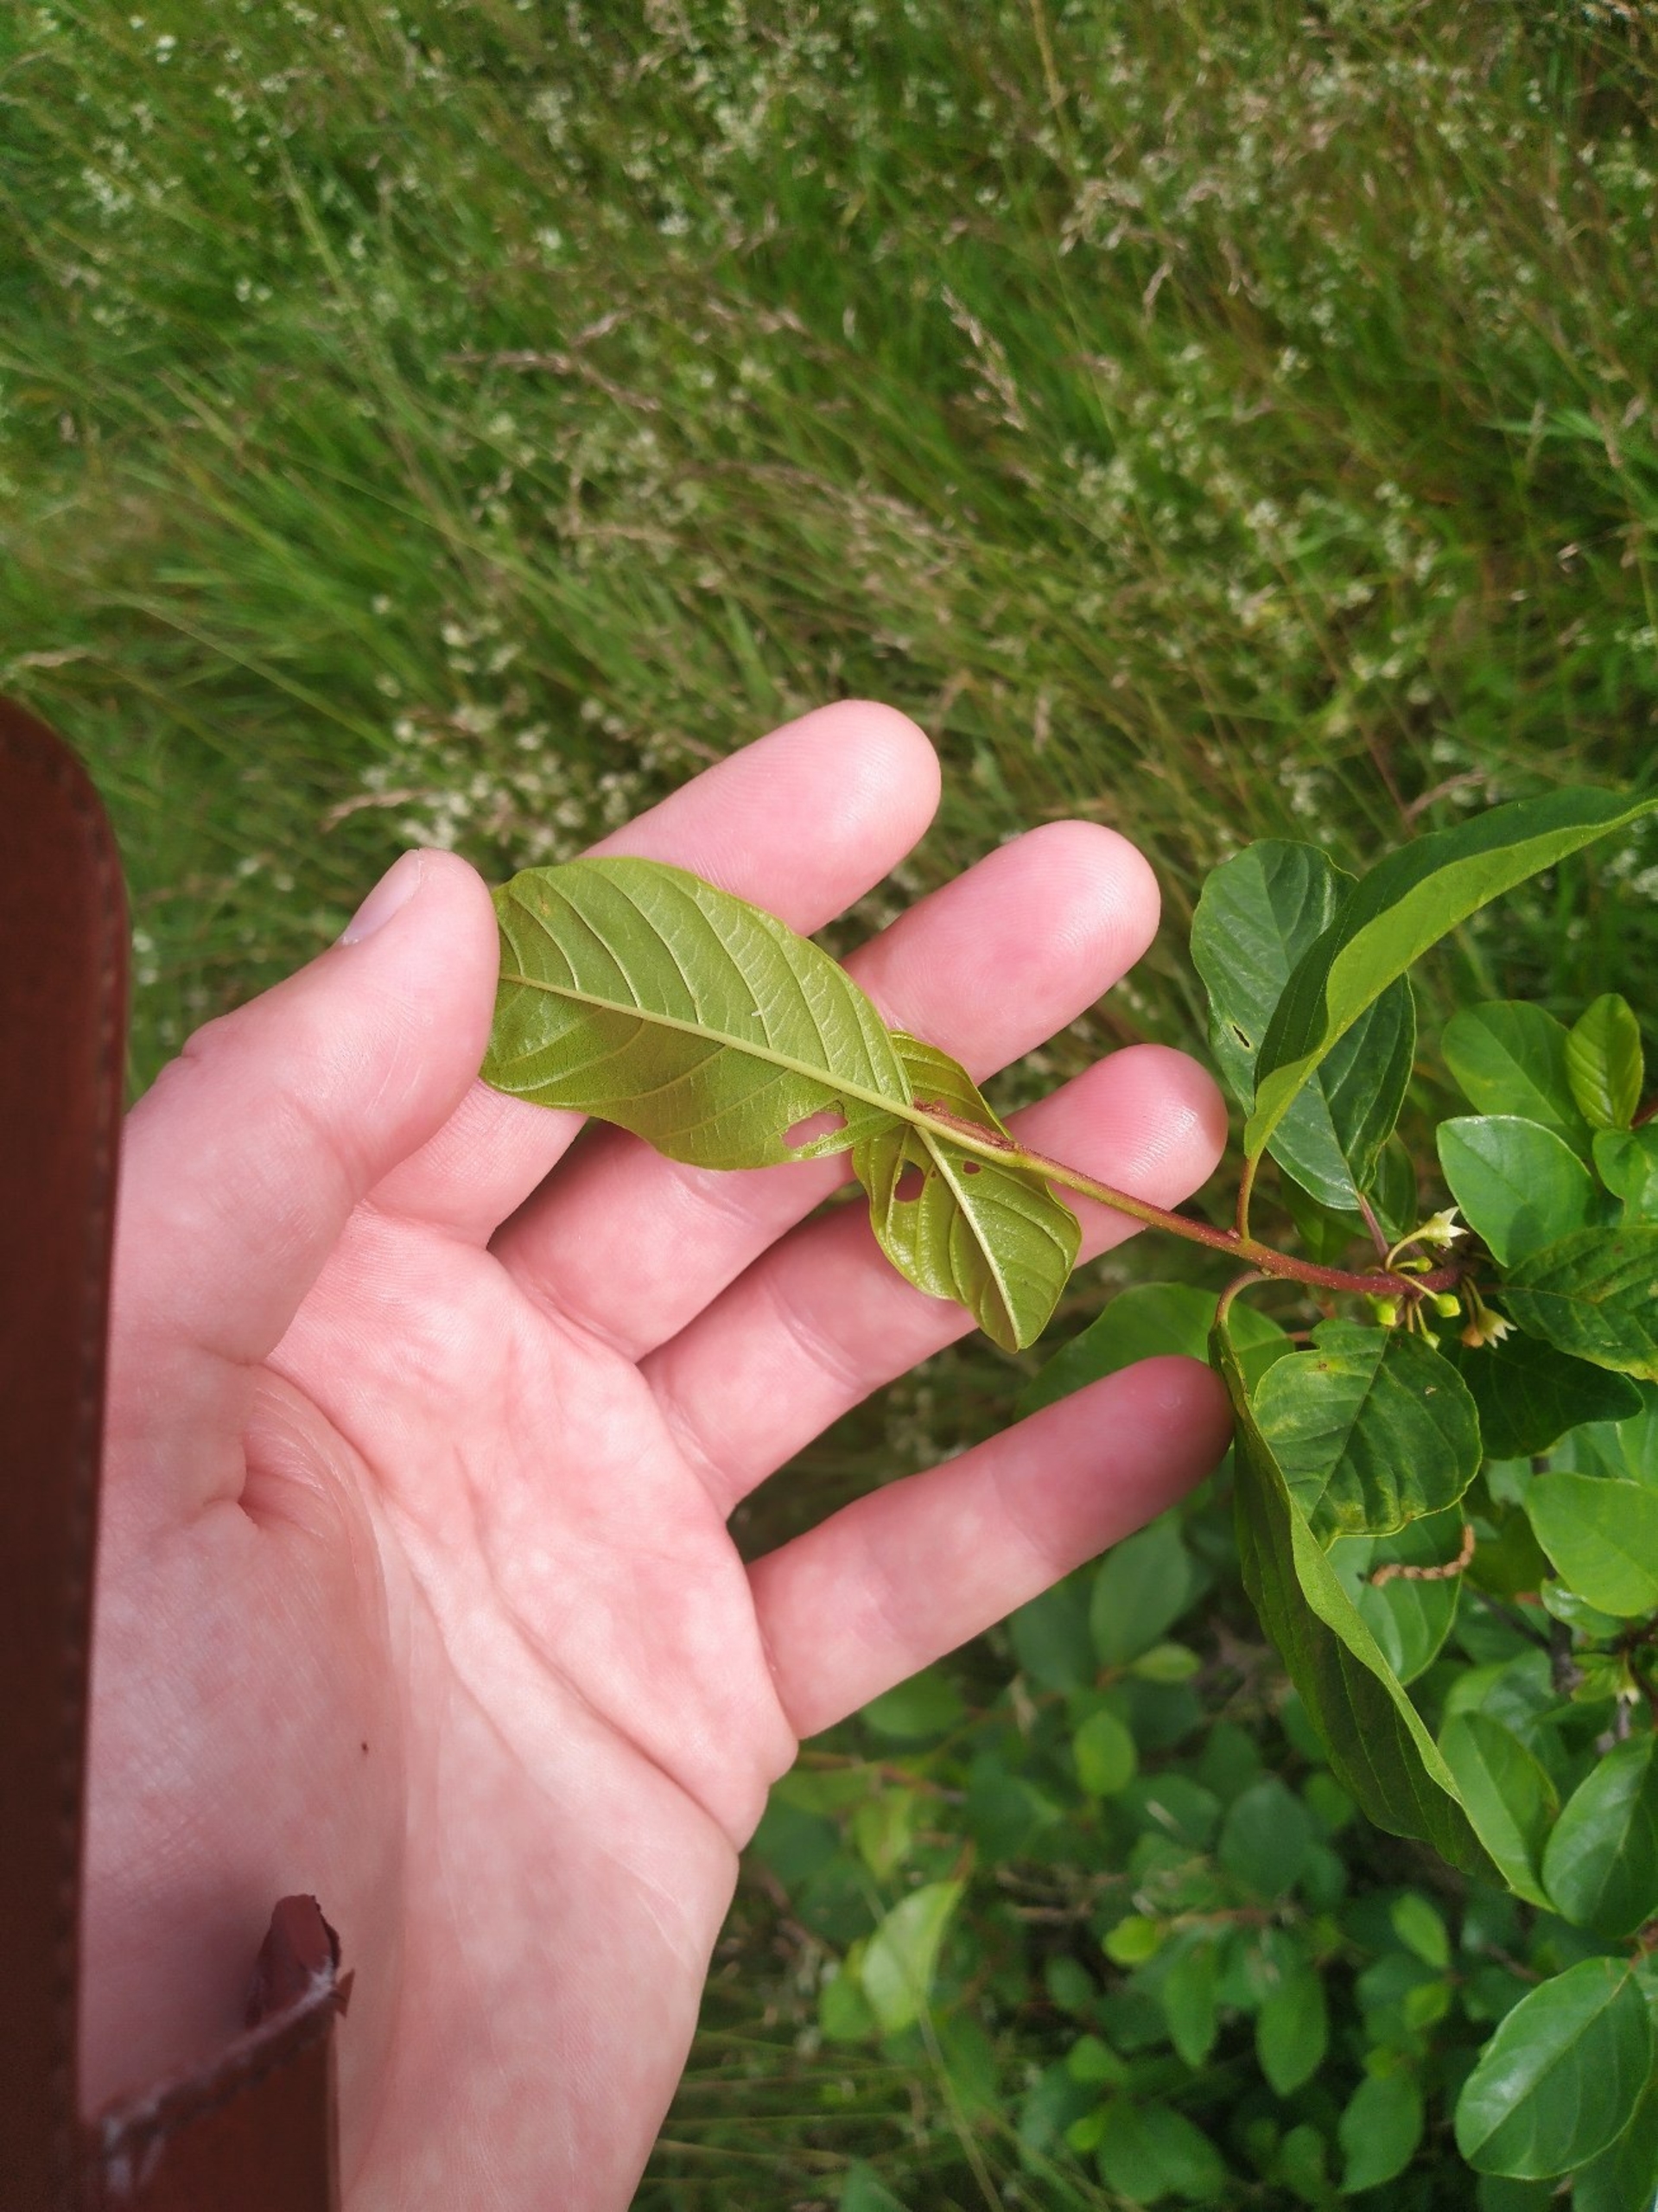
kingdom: Plantae
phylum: Tracheophyta
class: Magnoliopsida
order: Rosales
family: Rhamnaceae
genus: Frangula
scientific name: Frangula alnus
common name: Tørst
